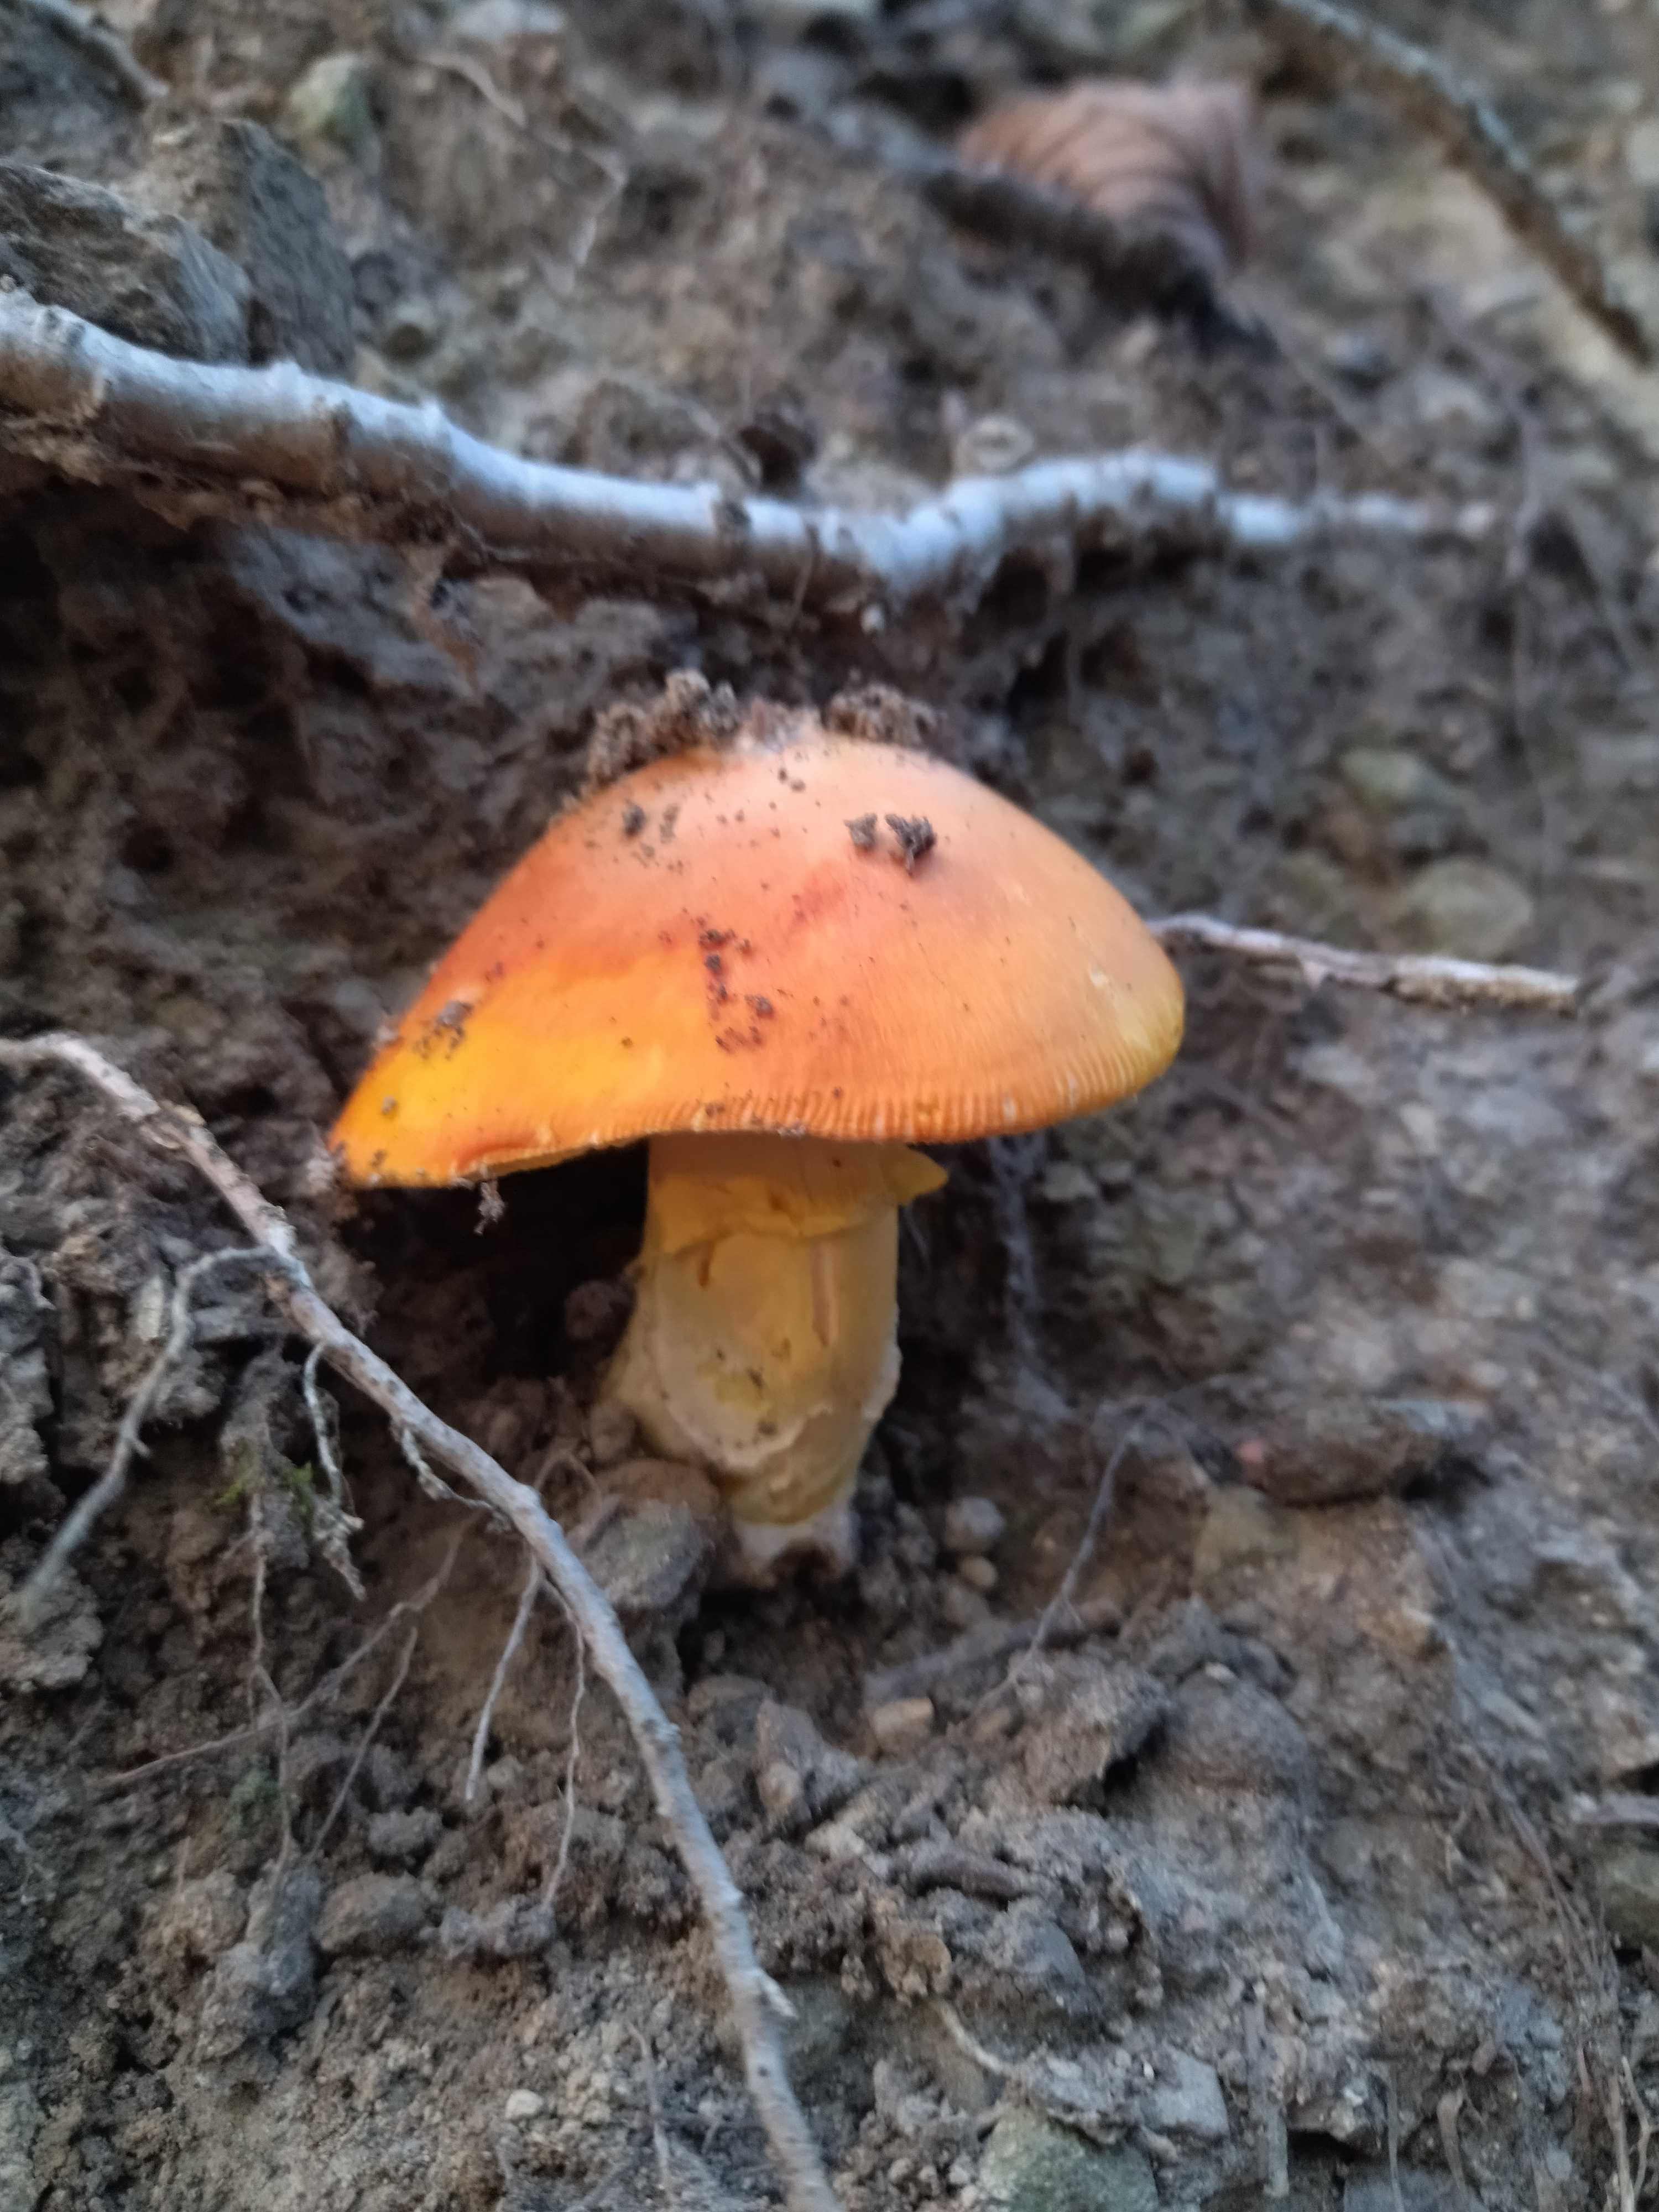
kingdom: Fungi
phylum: Basidiomycota
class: Agaricomycetes
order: Agaricales
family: Amanitaceae
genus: Amanita
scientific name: Amanita caesarea
